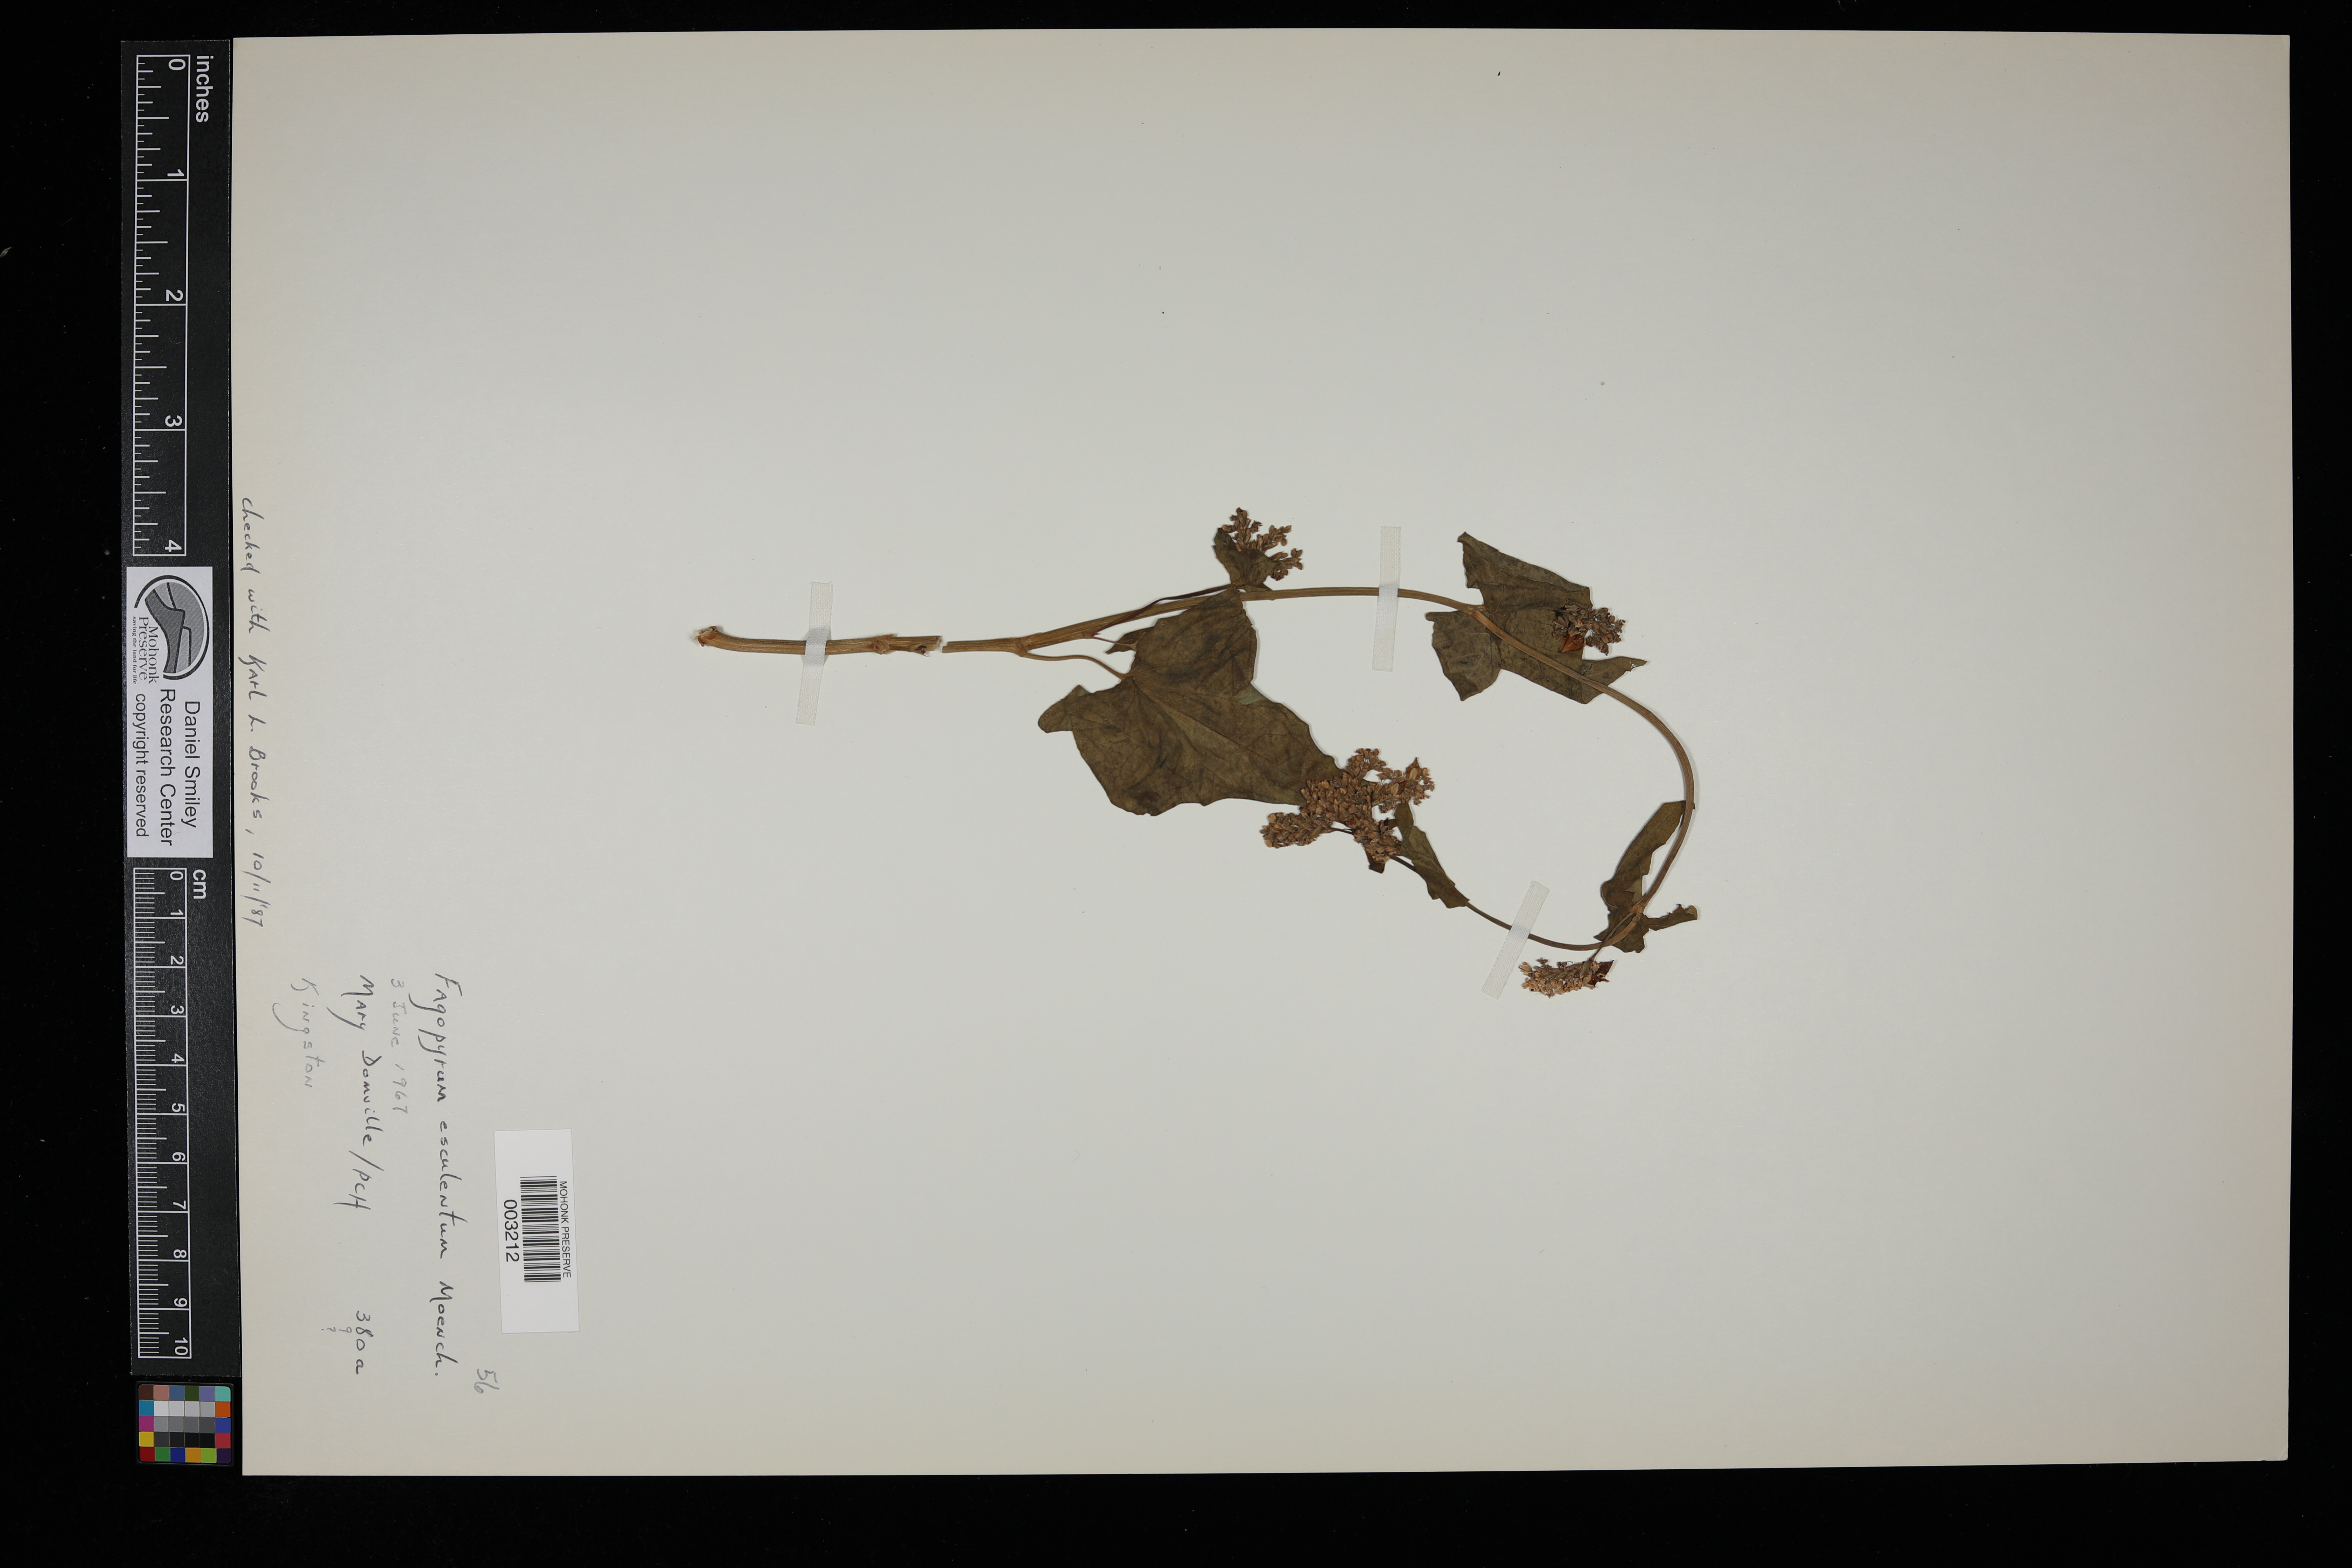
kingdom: Plantae
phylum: Tracheophyta
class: Magnoliopsida
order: Caryophyllales
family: Polygonaceae
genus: Fagopyrum
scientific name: Fagopyrum esculentum
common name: Buckwheat
